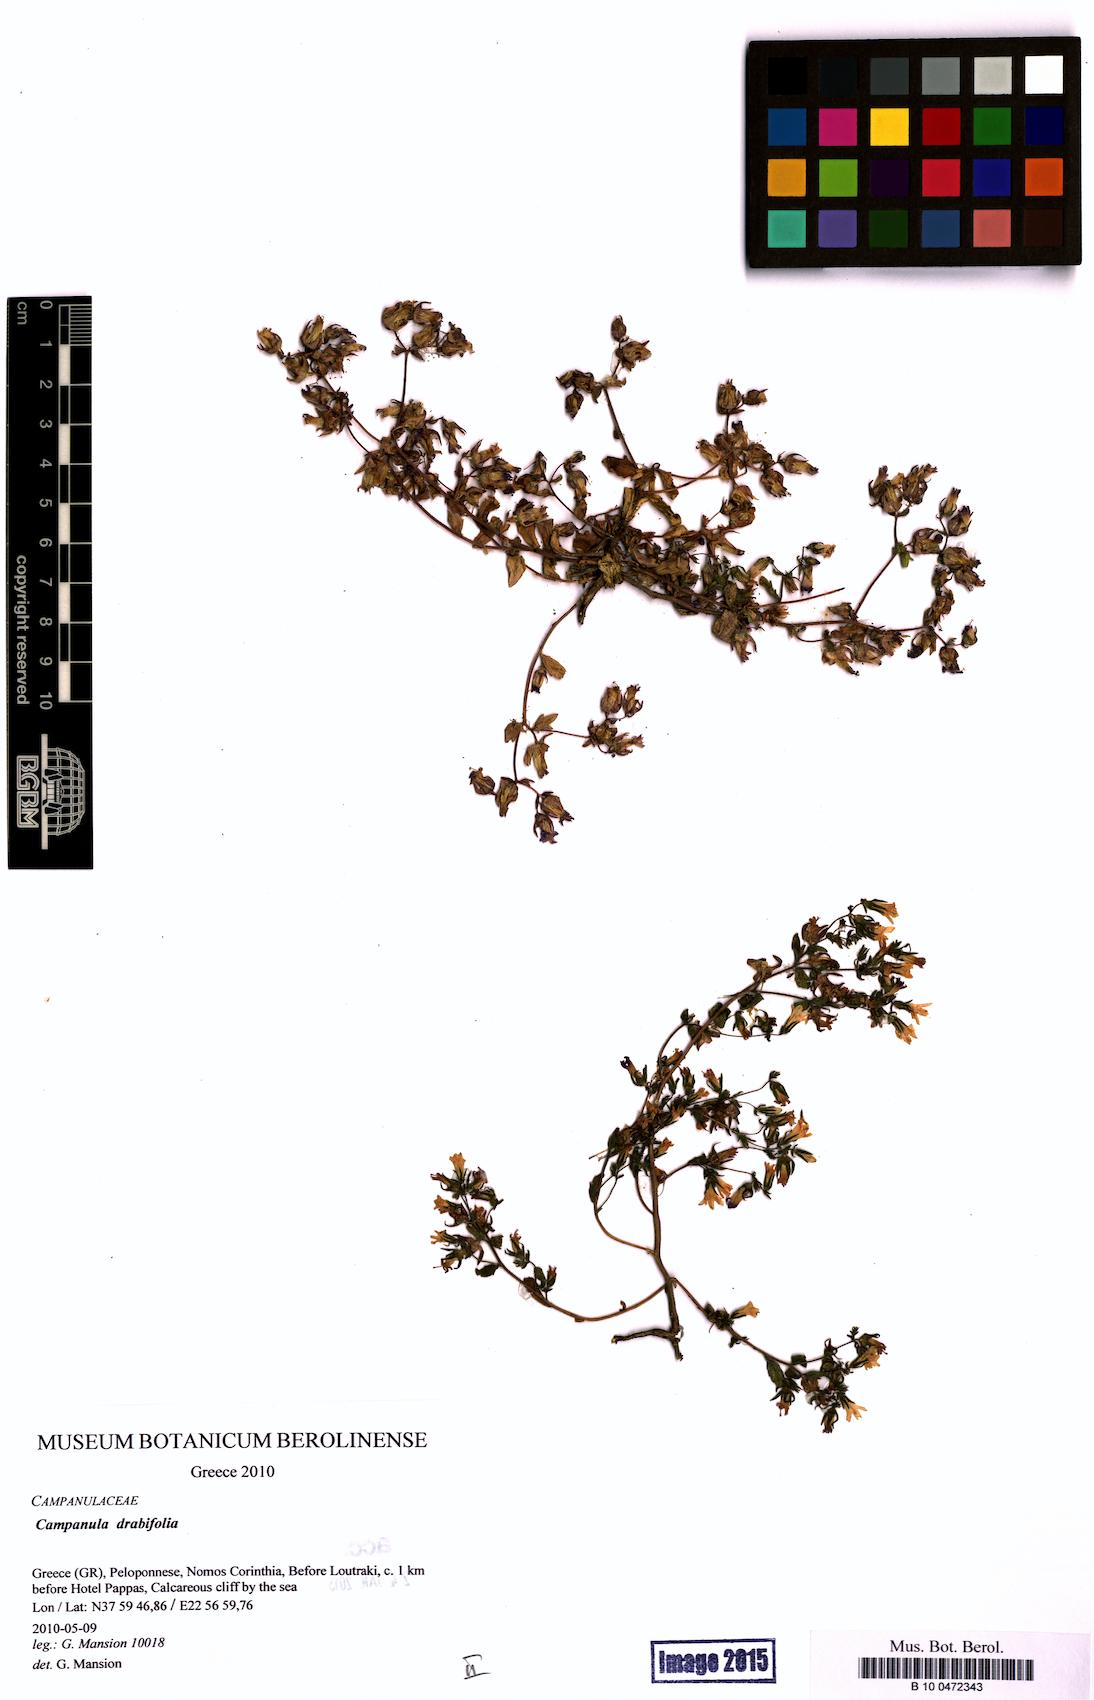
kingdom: Plantae
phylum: Tracheophyta
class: Magnoliopsida
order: Asterales
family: Campanulaceae
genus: Campanula
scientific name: Campanula drabifolia
